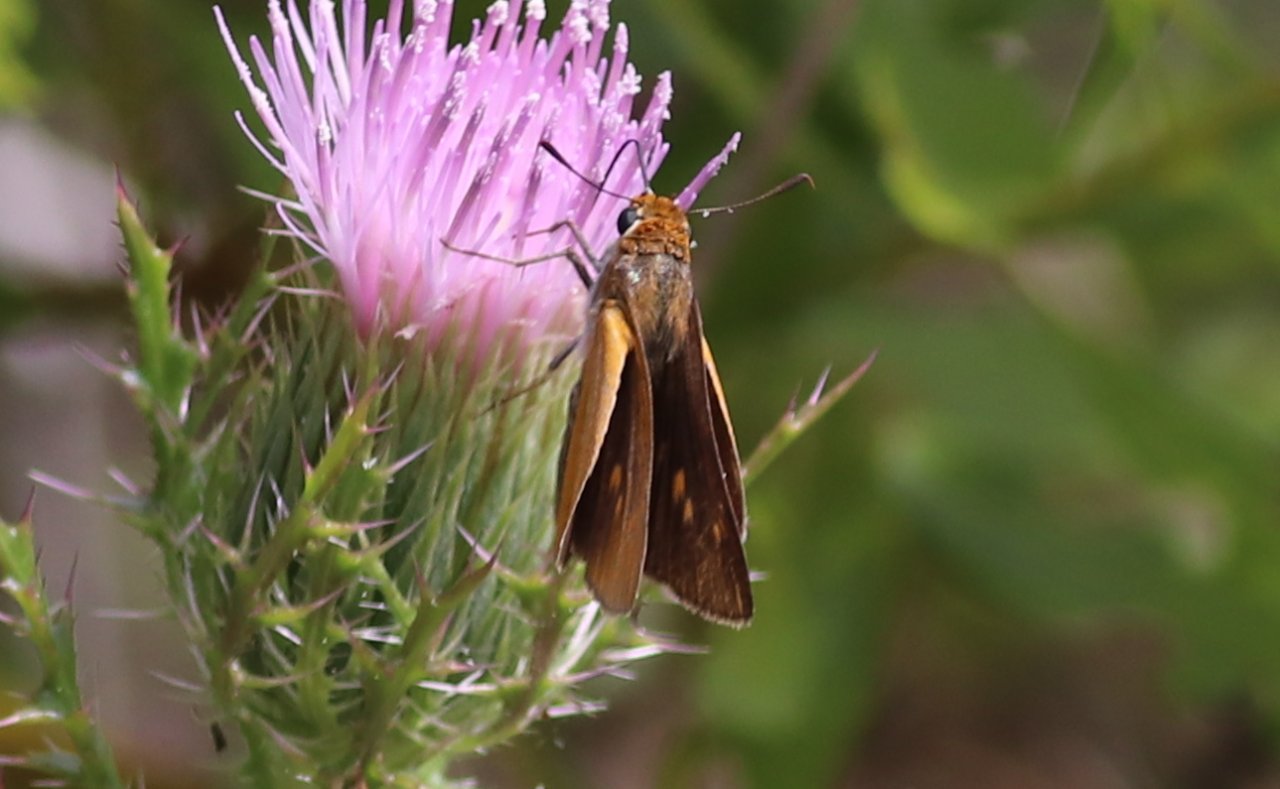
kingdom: Animalia
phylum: Arthropoda
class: Insecta
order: Lepidoptera
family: Hesperiidae
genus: Hylephila
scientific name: Hylephila phyleus
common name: Fiery Skipper
